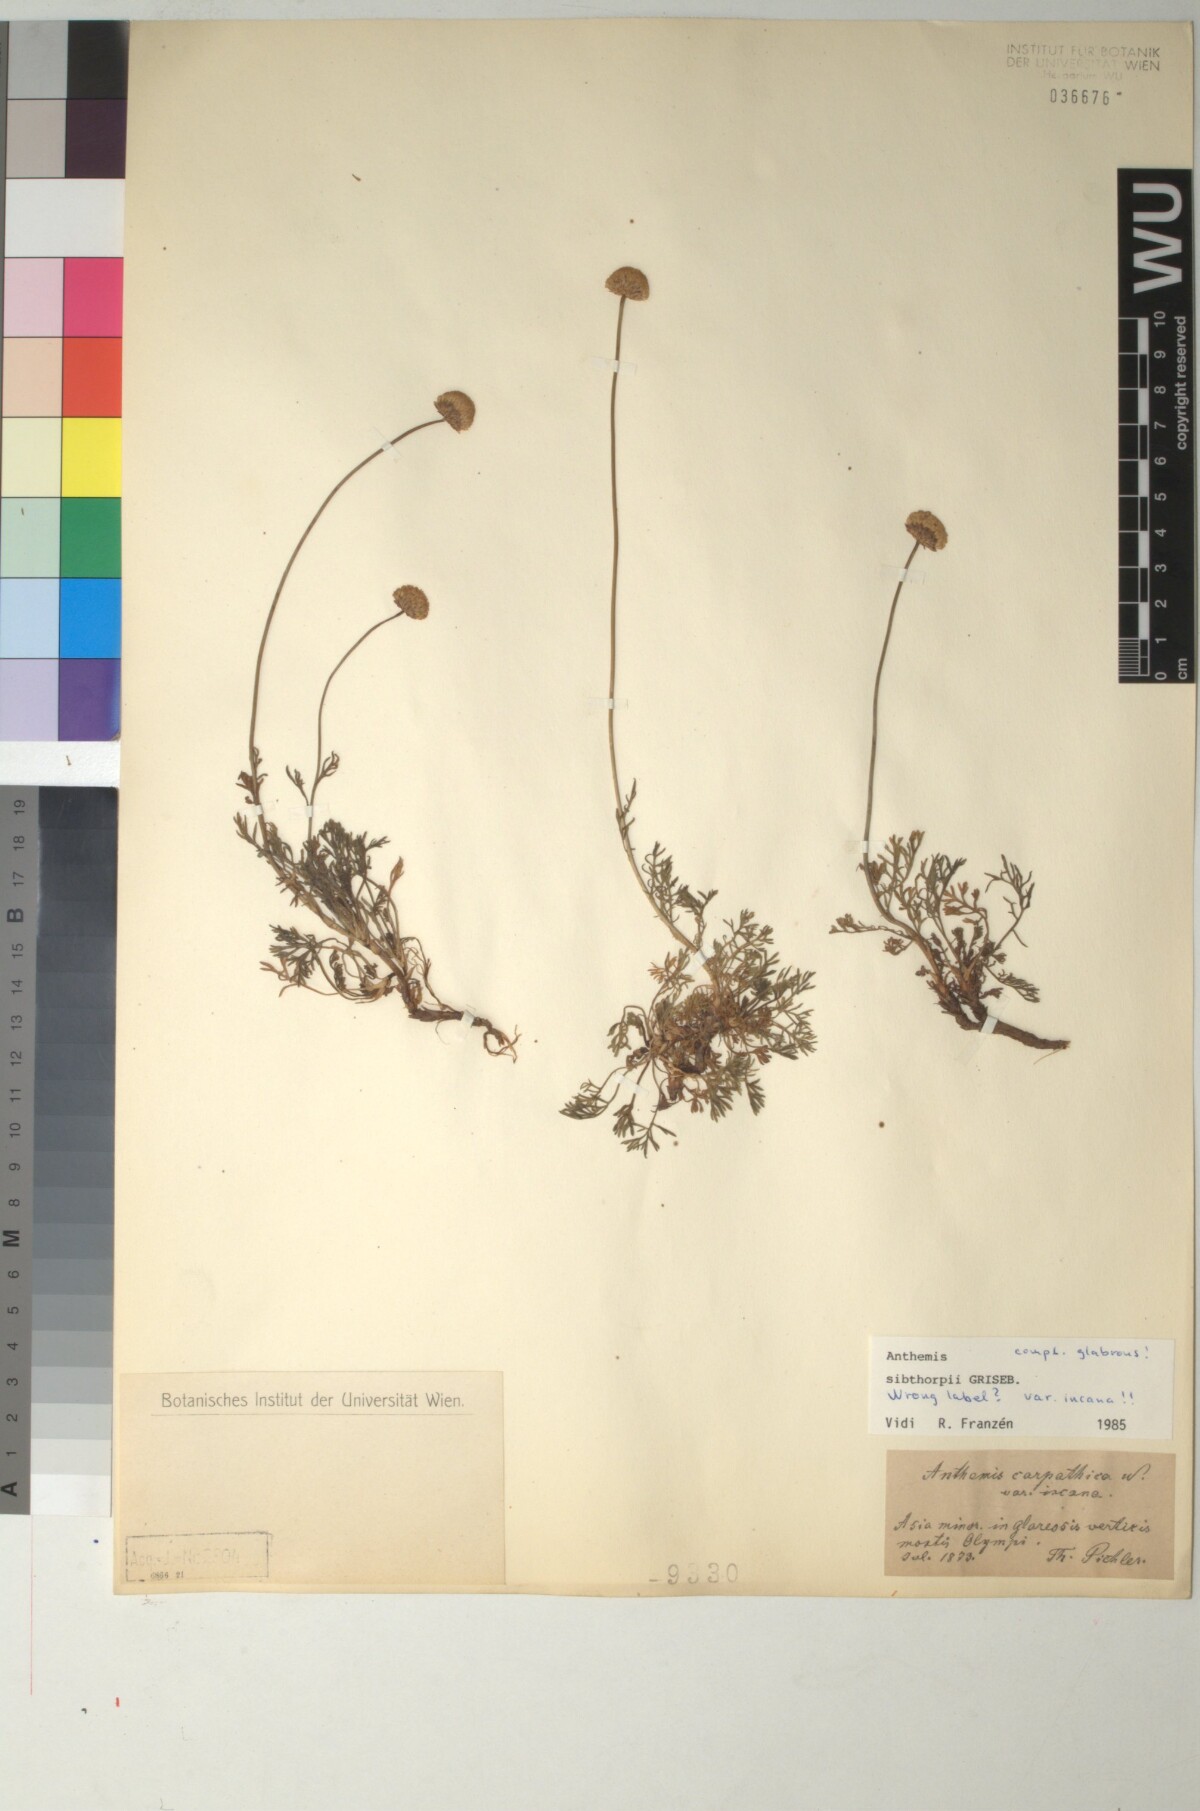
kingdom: Plantae
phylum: Tracheophyta
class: Magnoliopsida
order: Asterales
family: Asteraceae
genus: Anthemis
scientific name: Anthemis sibthorpii
